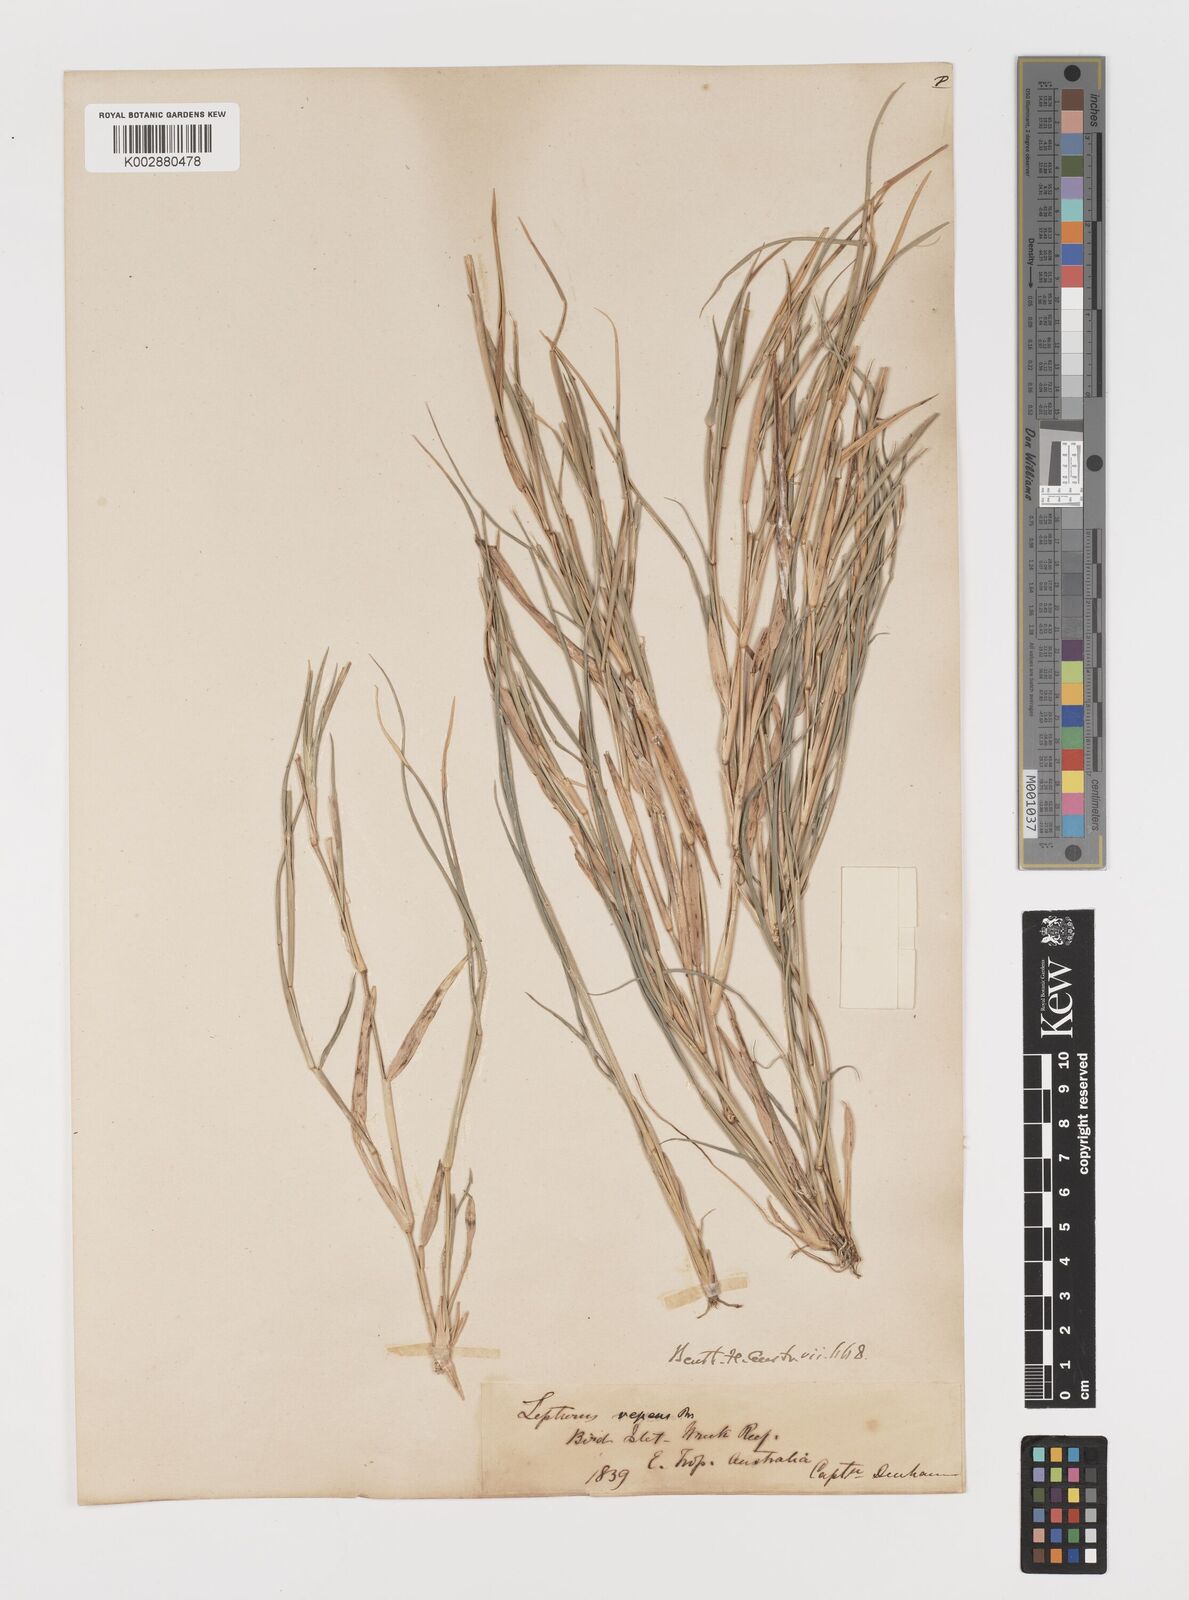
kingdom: Plantae
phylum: Tracheophyta
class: Liliopsida
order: Poales
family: Poaceae
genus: Lepturus
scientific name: Lepturus repens
